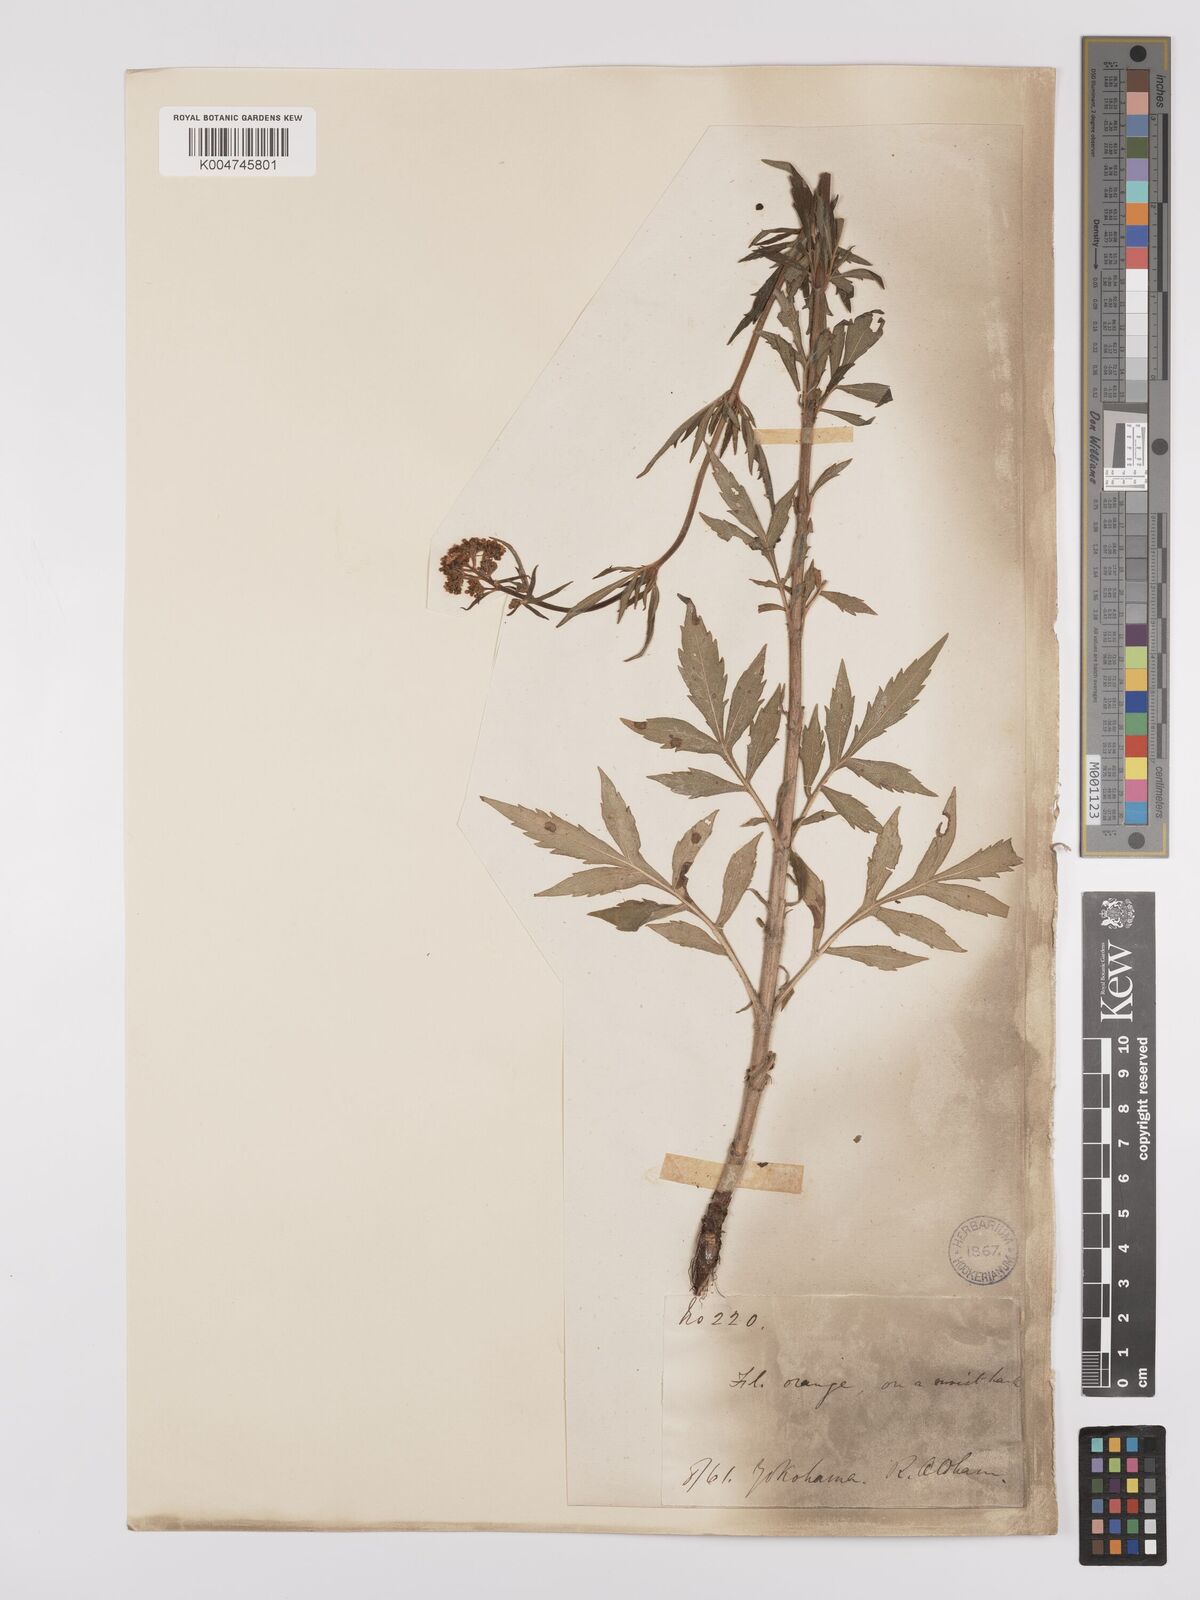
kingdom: Plantae
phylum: Tracheophyta
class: Magnoliopsida
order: Dipsacales
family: Caprifoliaceae
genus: Patrinia
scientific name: Patrinia scabiosifolia
